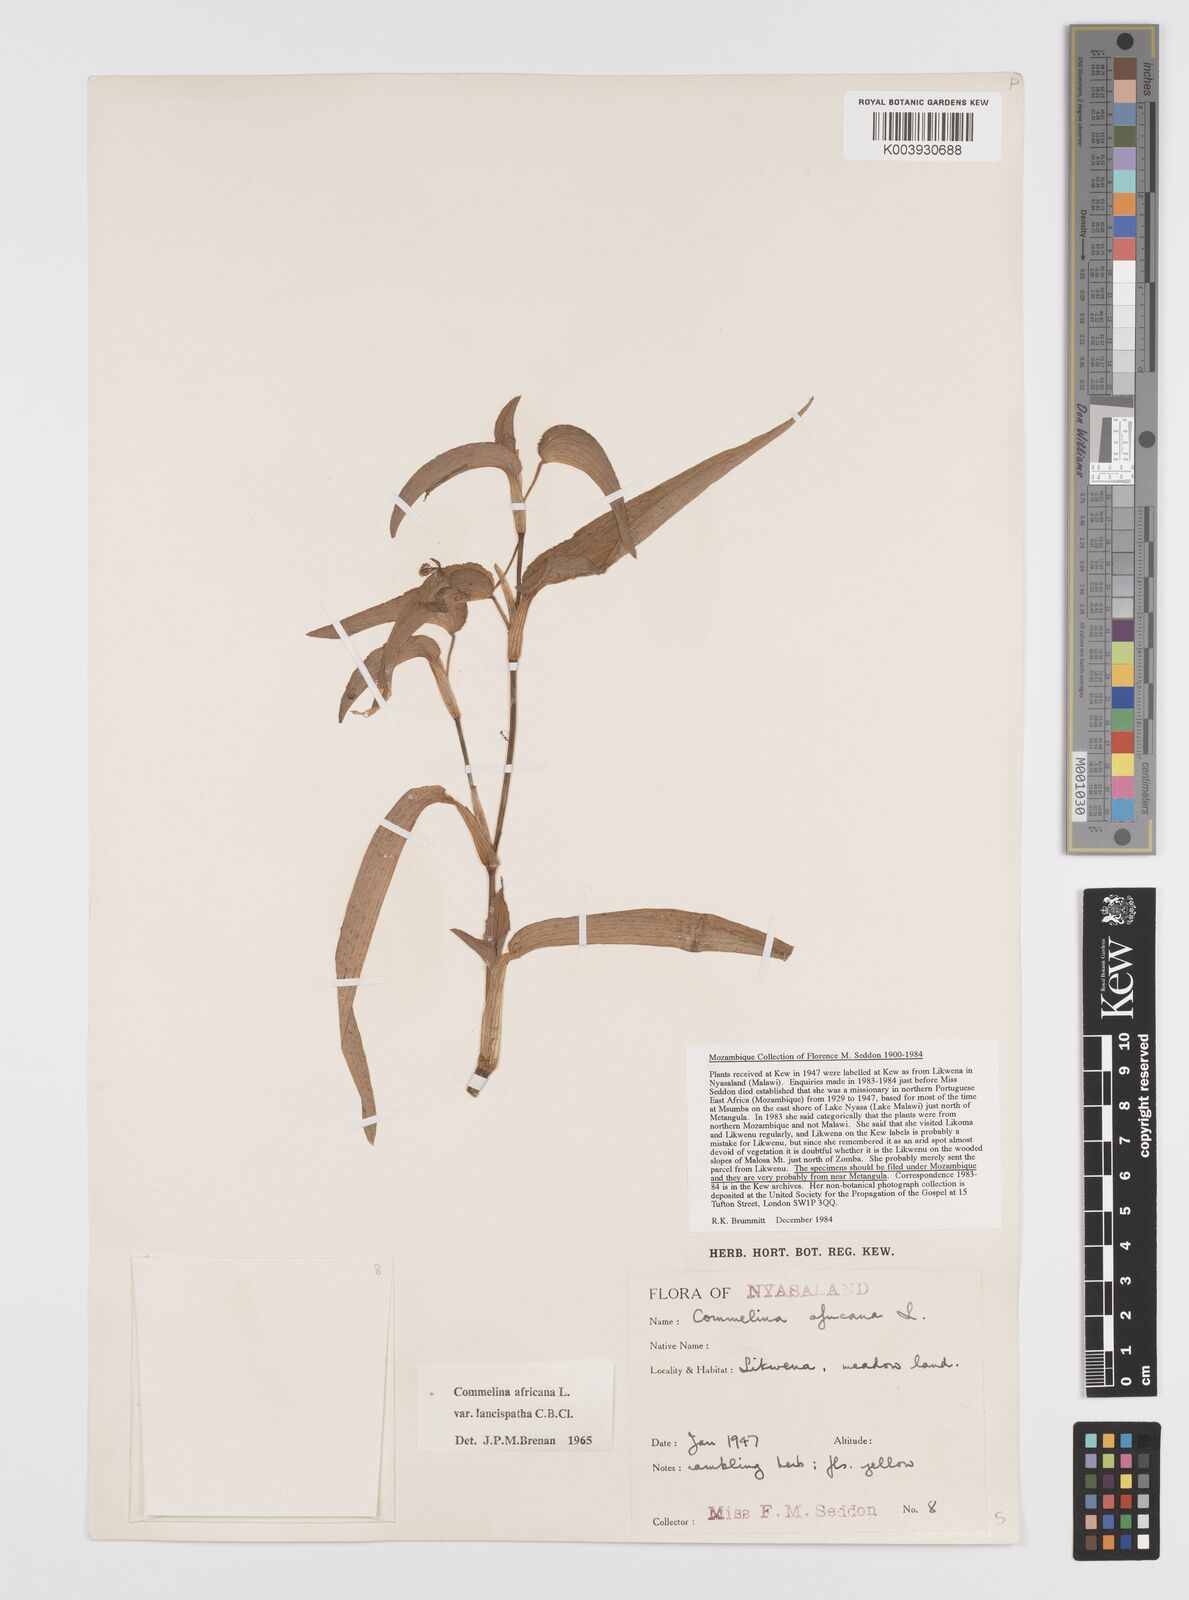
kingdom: Plantae
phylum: Tracheophyta
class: Liliopsida
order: Commelinales
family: Commelinaceae
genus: Commelina
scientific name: Commelina africana
